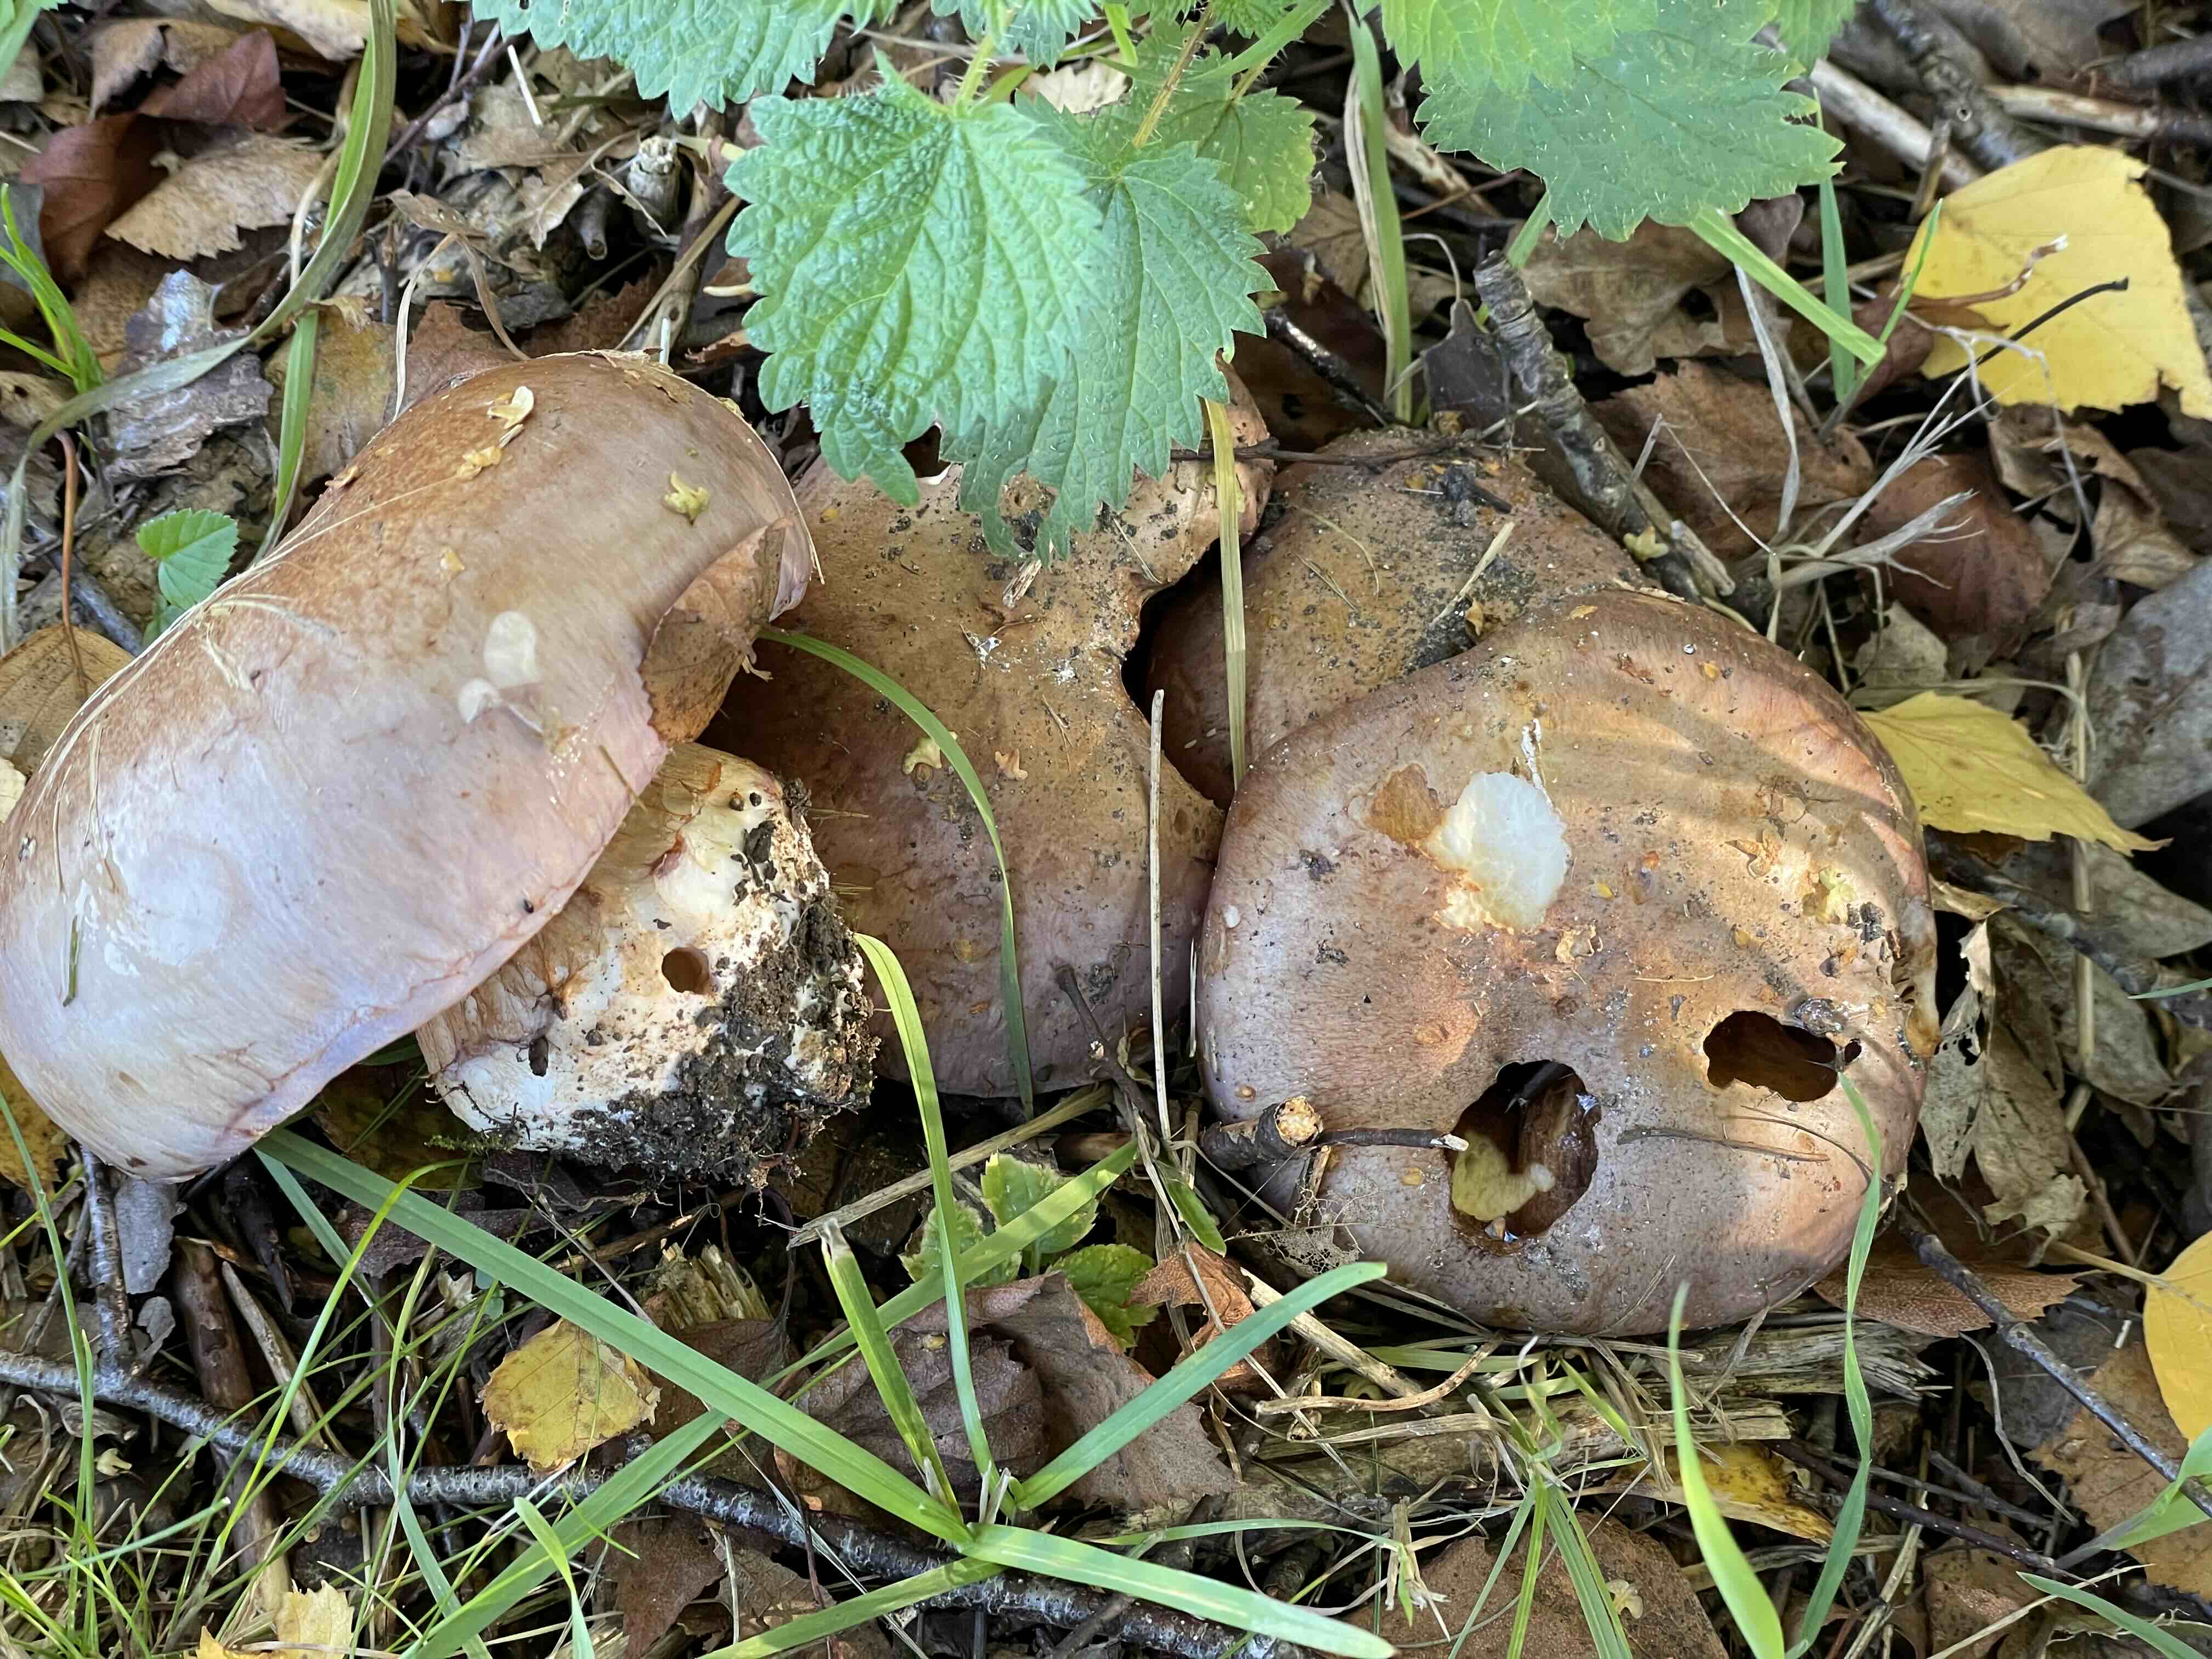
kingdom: Fungi
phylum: Basidiomycota
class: Agaricomycetes
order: Agaricales
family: Cortinariaceae
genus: Phlegmacium
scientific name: Phlegmacium balteatocumatile
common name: violettrådet slørhat
